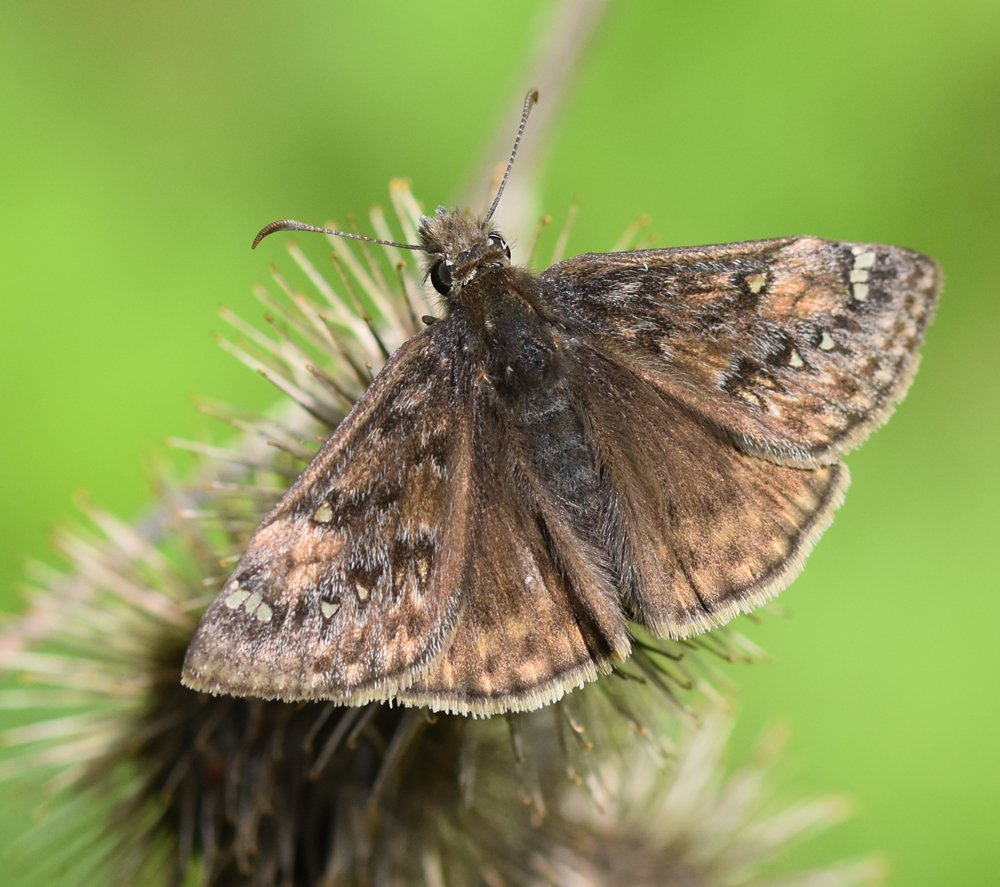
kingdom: Animalia
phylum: Arthropoda
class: Insecta
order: Lepidoptera
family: Hesperiidae
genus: Gesta
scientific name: Gesta
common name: Juvenal's Duskywing
